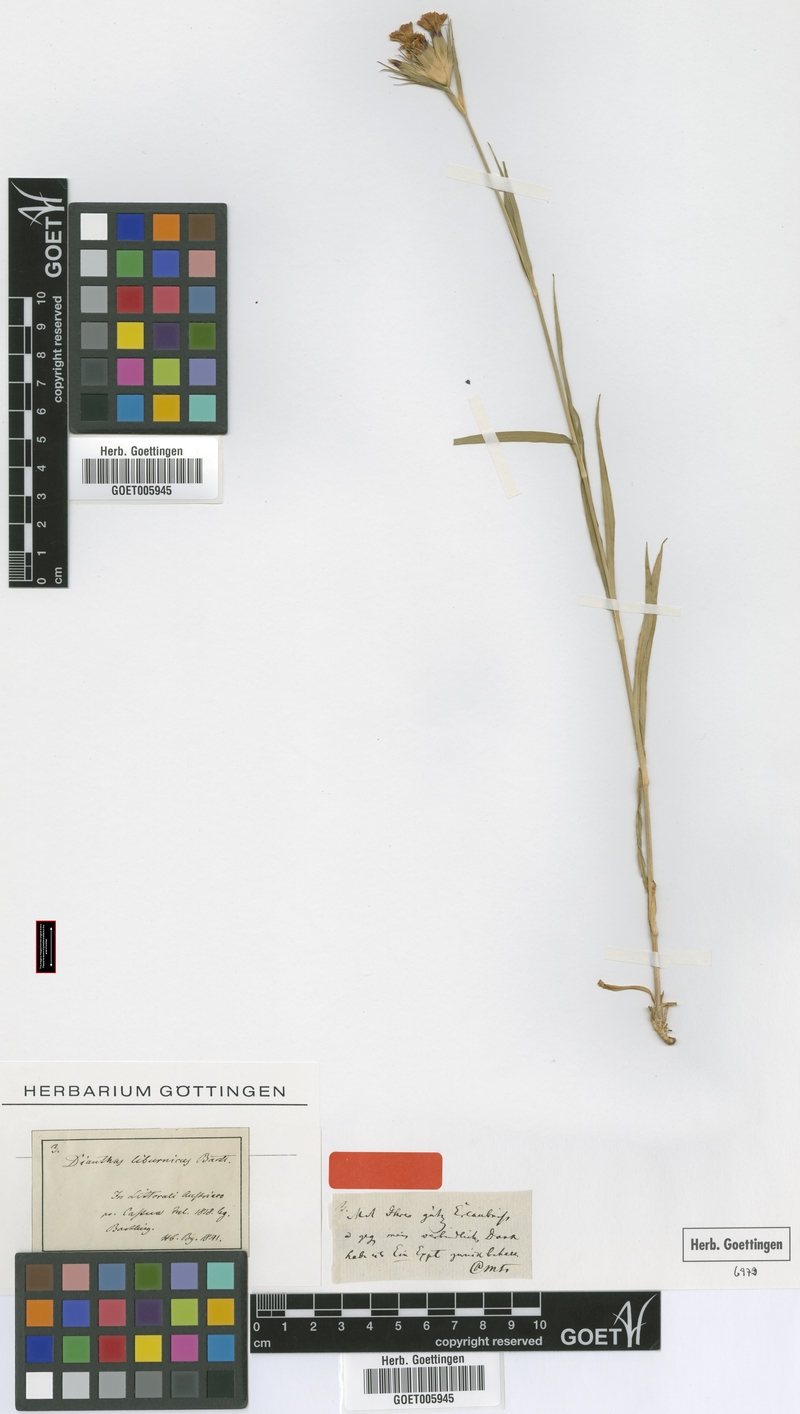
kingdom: Plantae
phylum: Tracheophyta
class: Magnoliopsida
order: Caryophyllales
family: Caryophyllaceae
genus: Dianthus
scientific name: Dianthus balbisii
